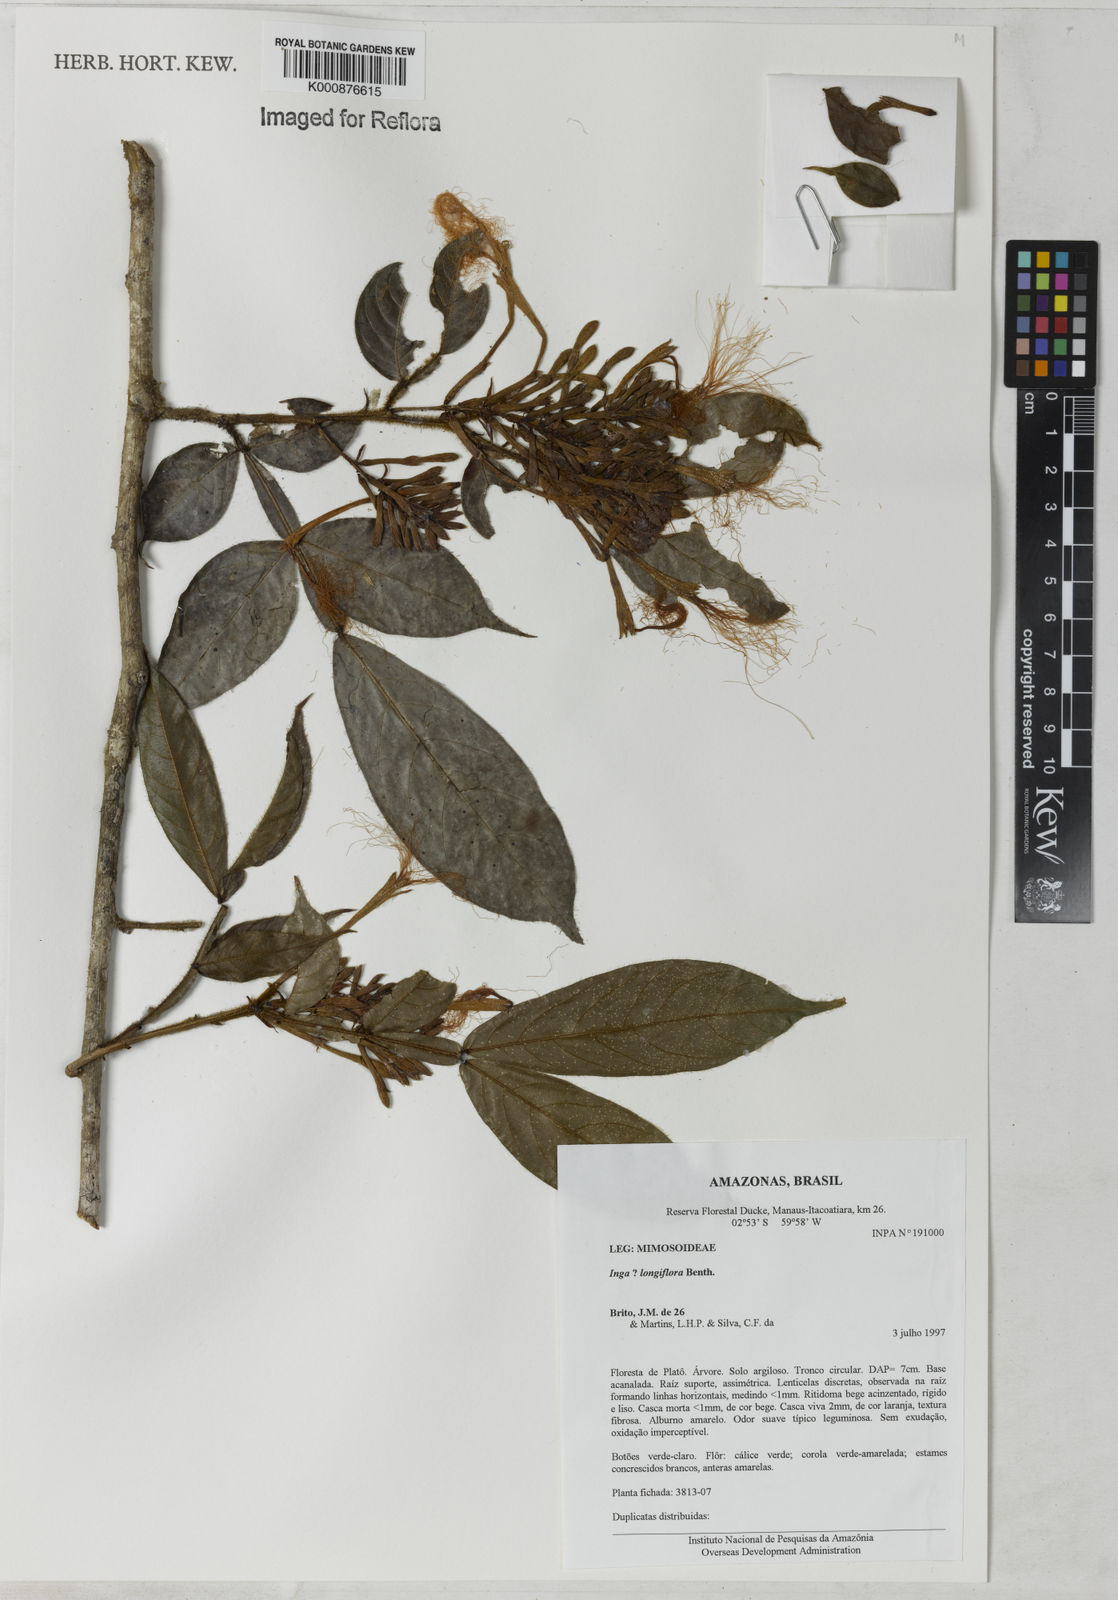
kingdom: Plantae
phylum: Tracheophyta
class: Magnoliopsida
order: Fabales
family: Fabaceae
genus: Inga
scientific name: Inga longiflora
